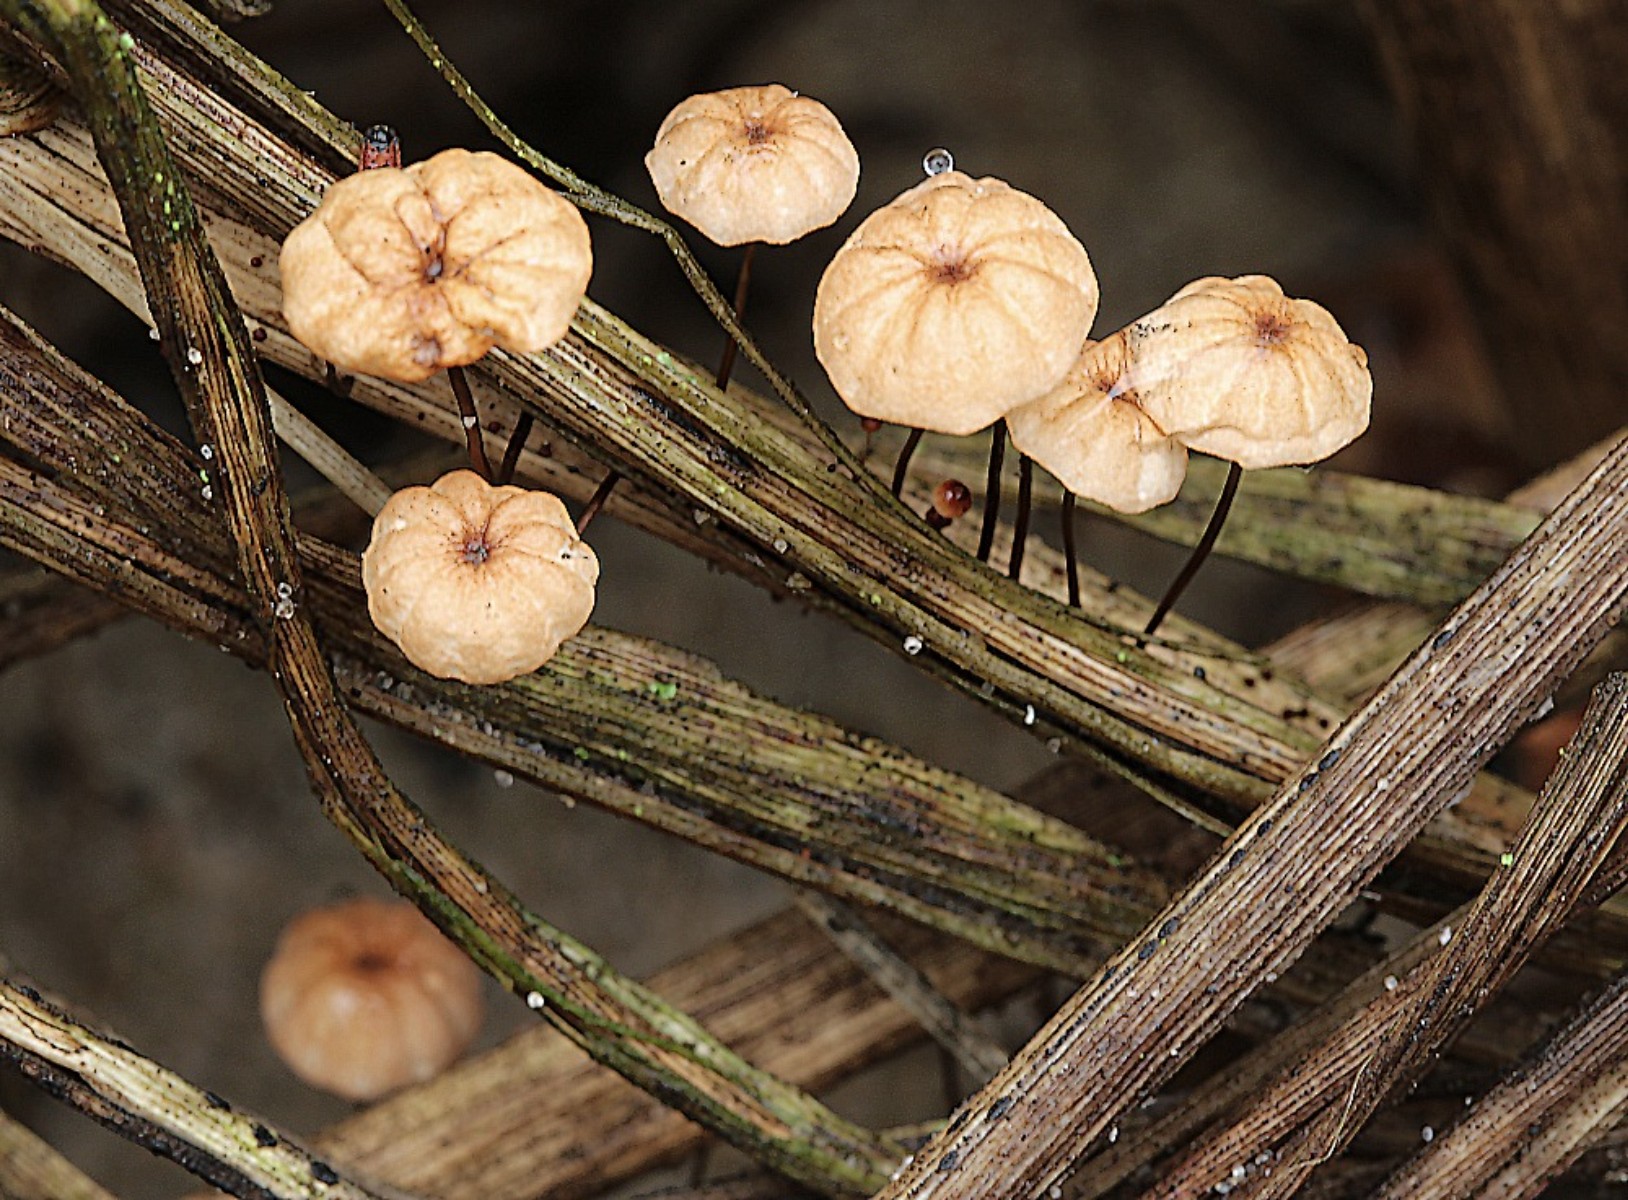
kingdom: Fungi
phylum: Basidiomycota
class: Agaricomycetes
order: Agaricales
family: Marasmiaceae
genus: Marasmius
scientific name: Marasmius curreyi
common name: teglrød bruskhat
